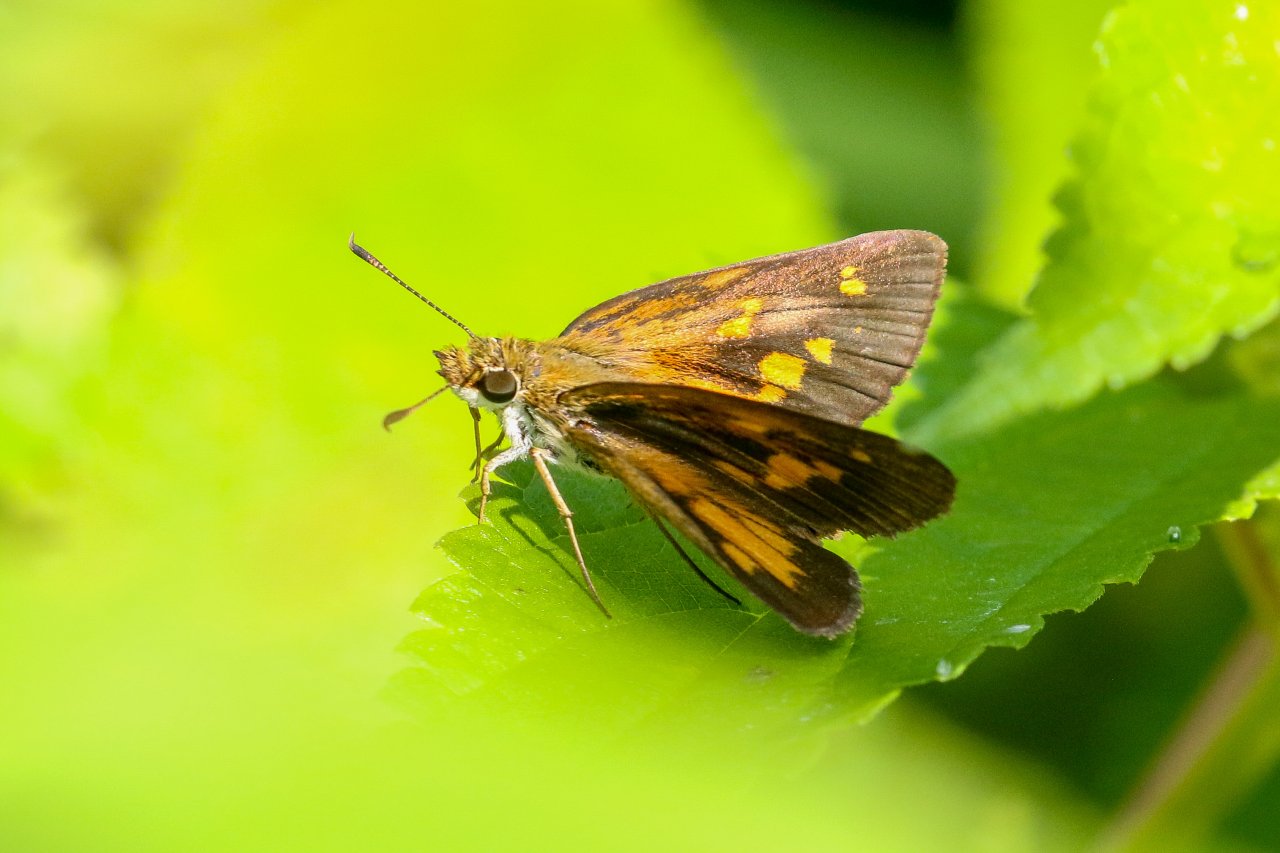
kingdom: Animalia
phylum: Arthropoda
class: Insecta
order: Lepidoptera
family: Hesperiidae
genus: Poanes
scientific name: Poanes viator
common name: Broad-winged Skipper
